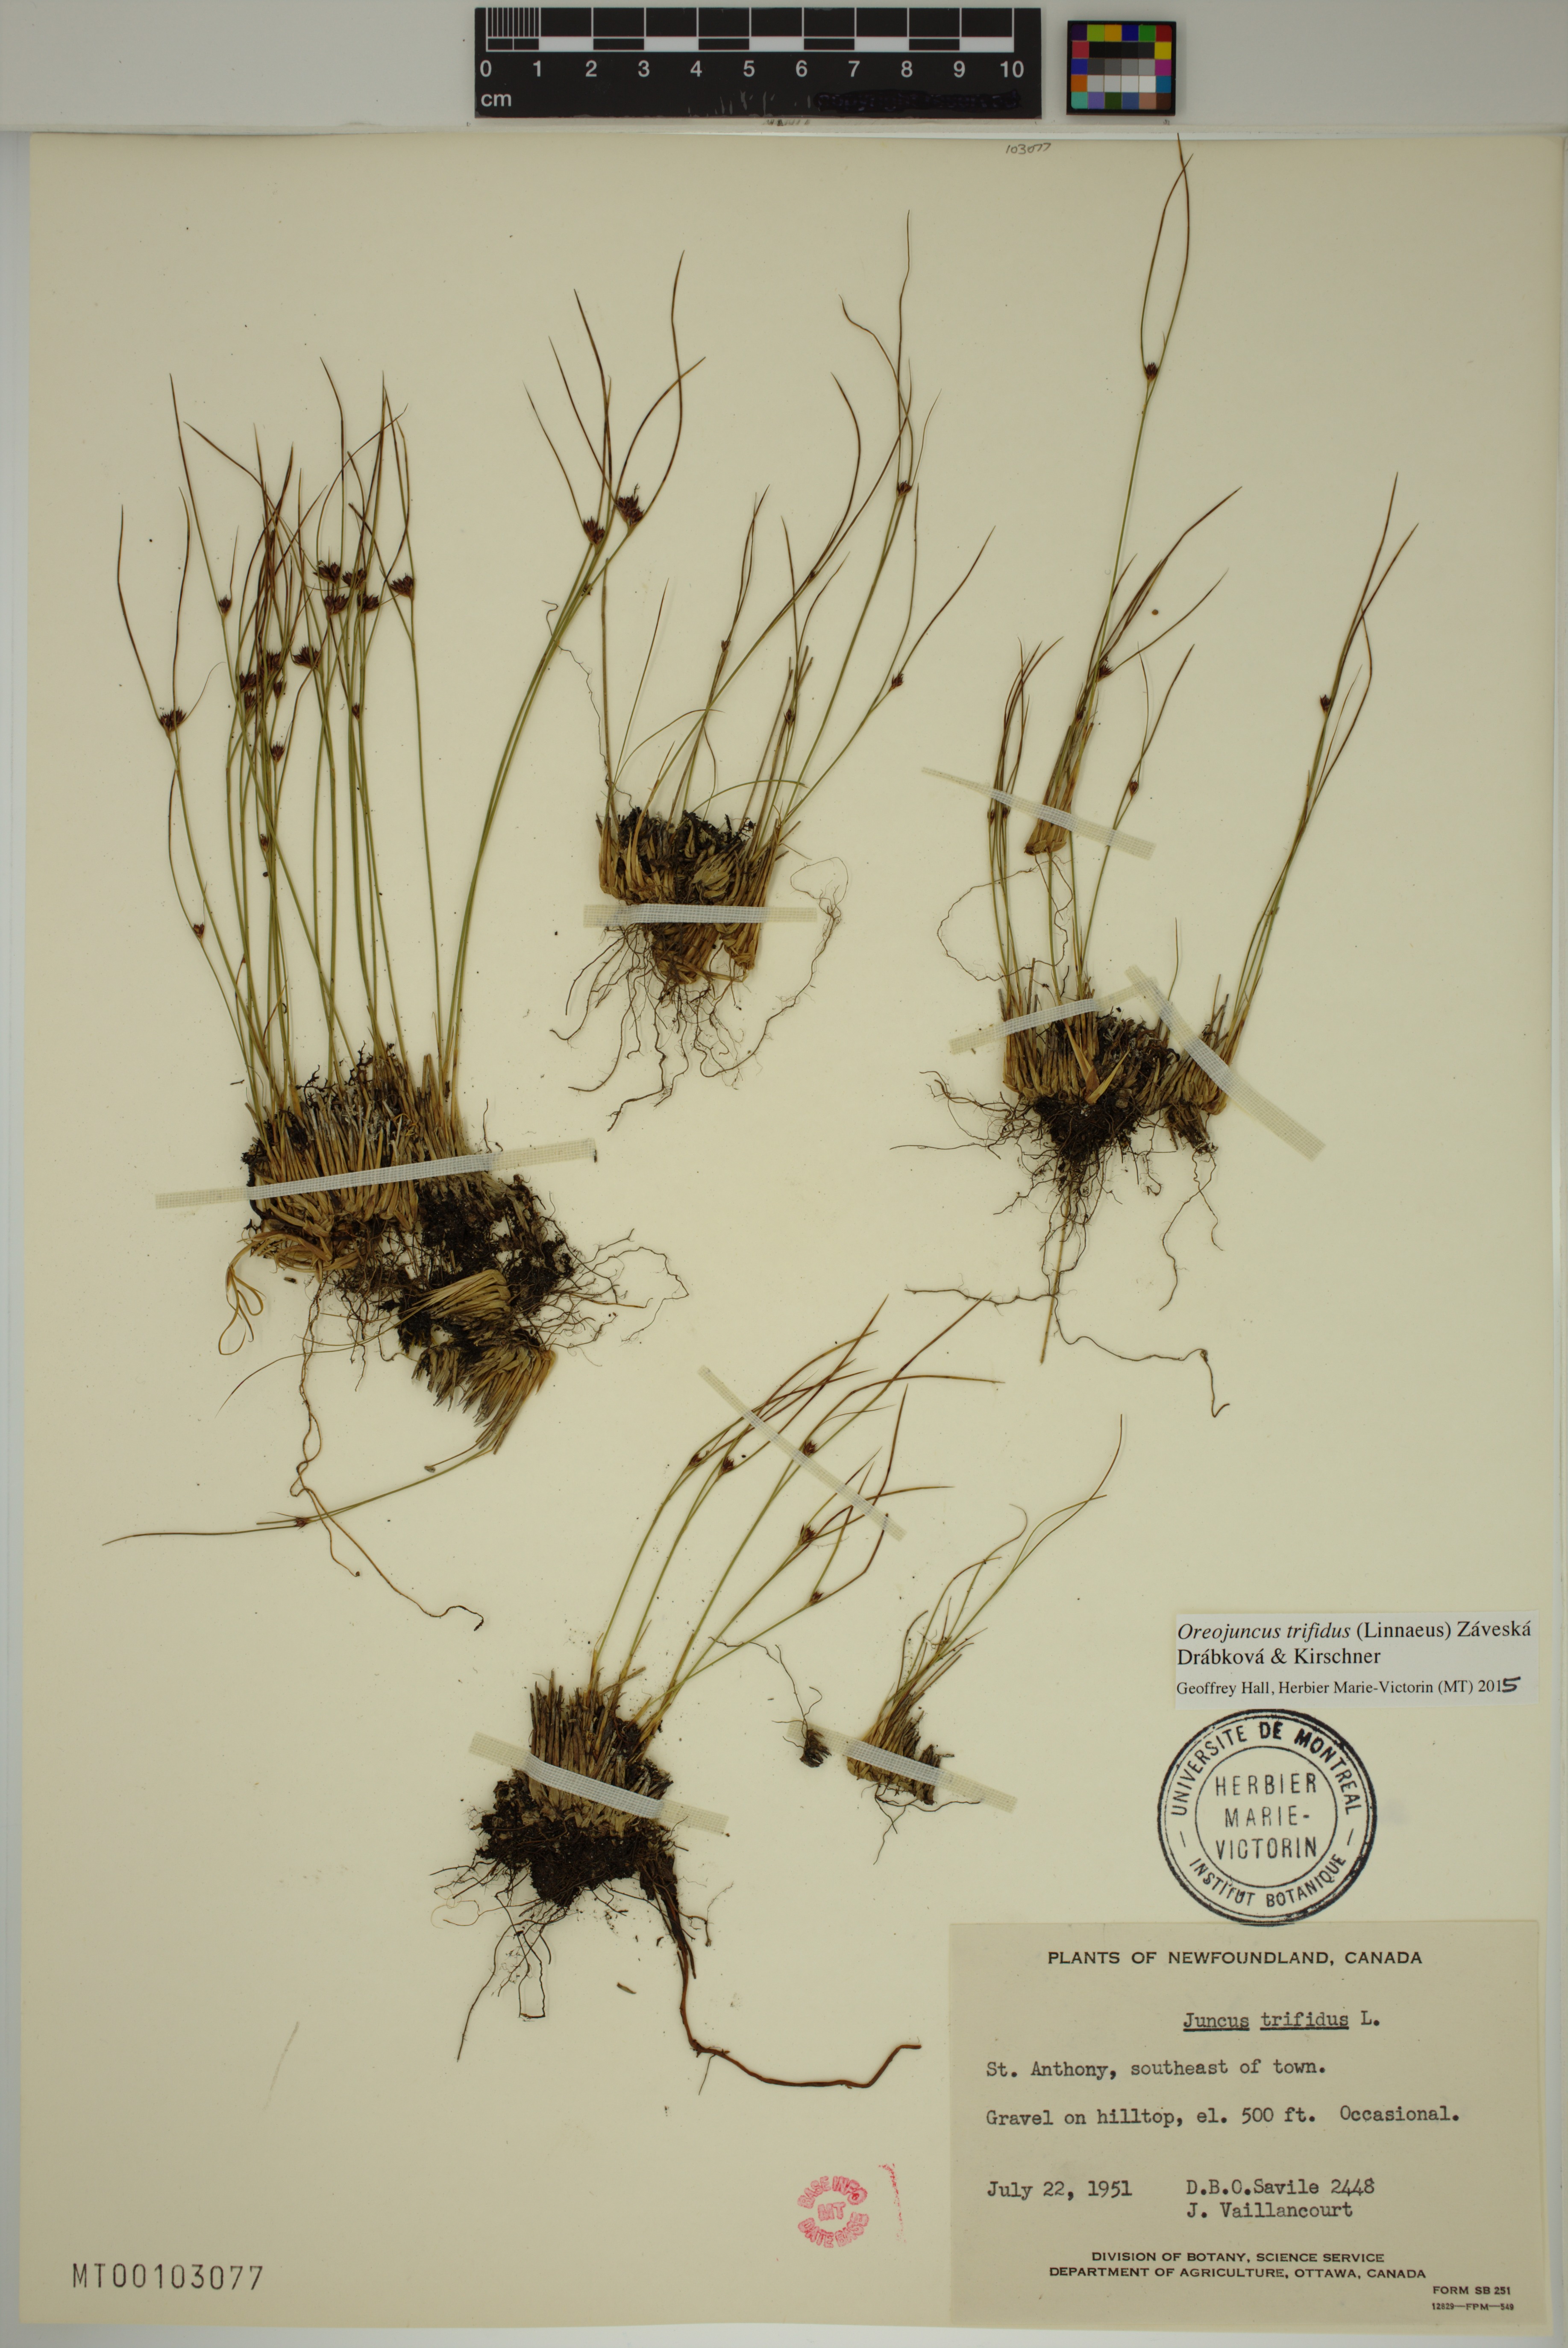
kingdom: Plantae
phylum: Tracheophyta
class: Liliopsida
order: Poales
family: Juncaceae
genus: Oreojuncus
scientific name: Oreojuncus trifidus
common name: Highland rush
